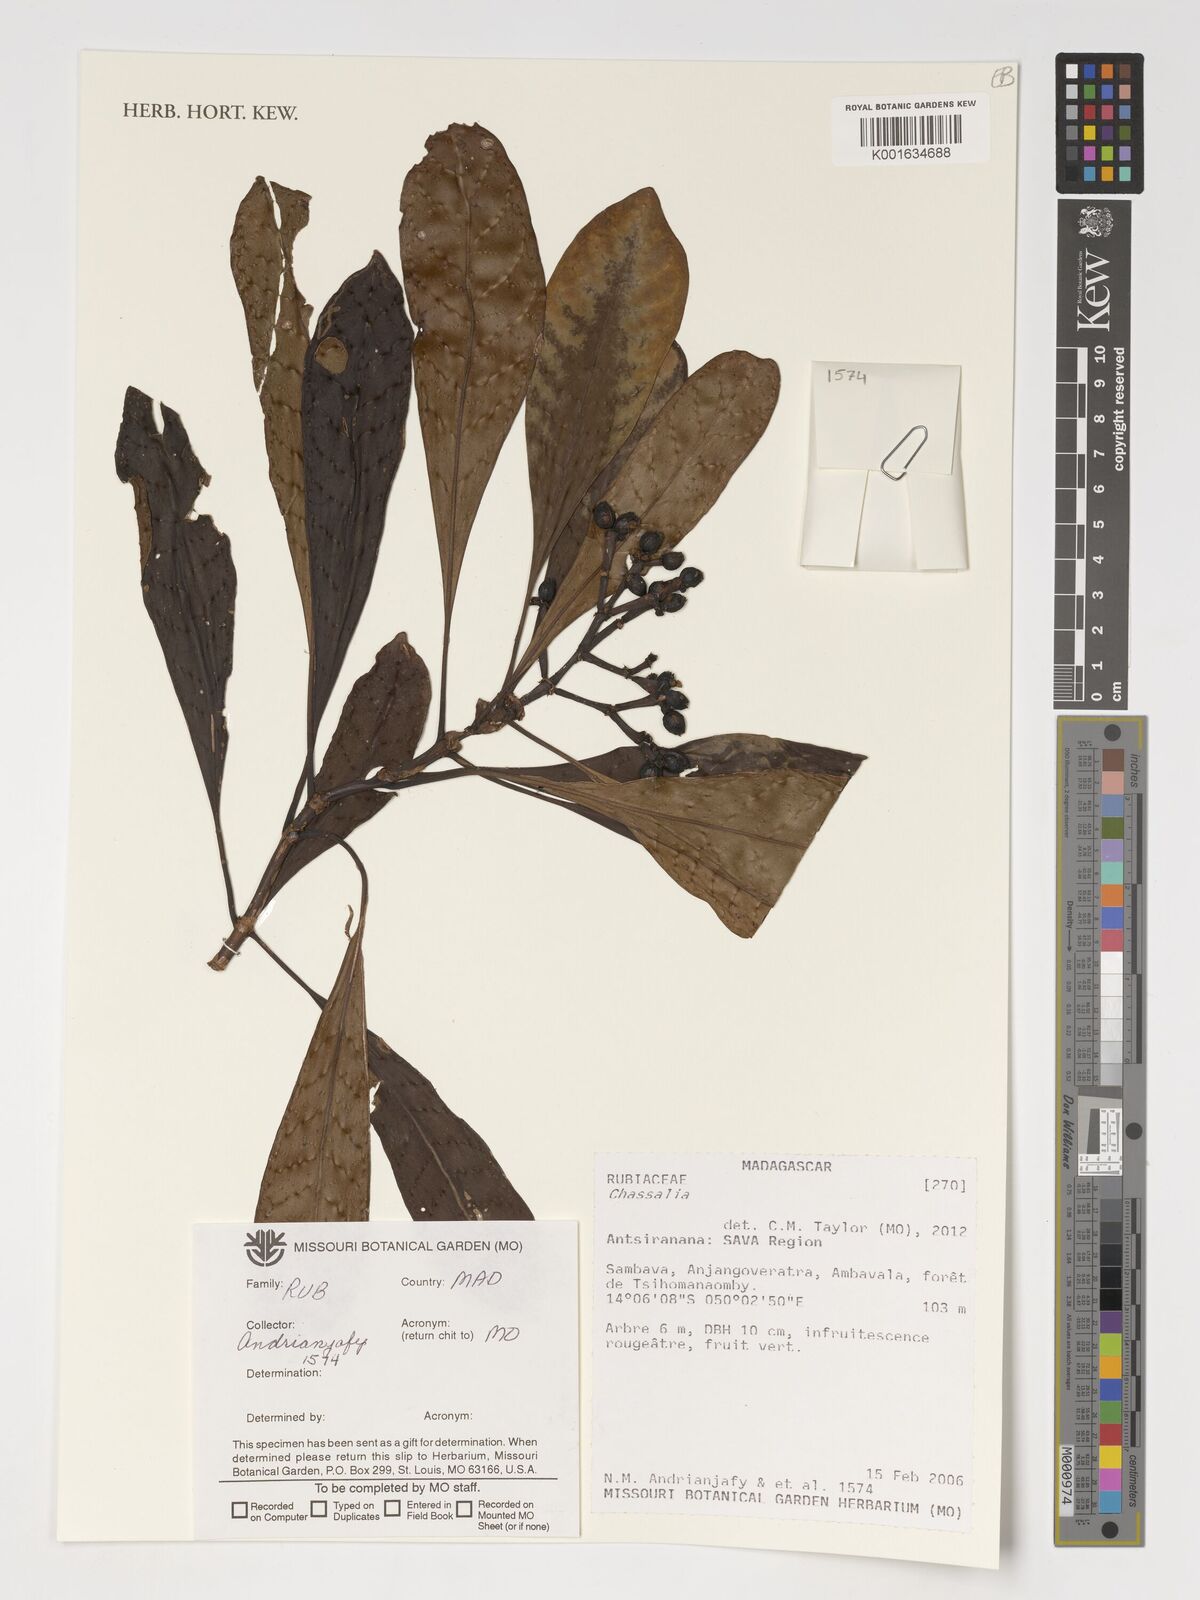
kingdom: Plantae
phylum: Tracheophyta
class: Magnoliopsida
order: Gentianales
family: Rubiaceae
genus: Chassalia
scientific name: Chassalia
